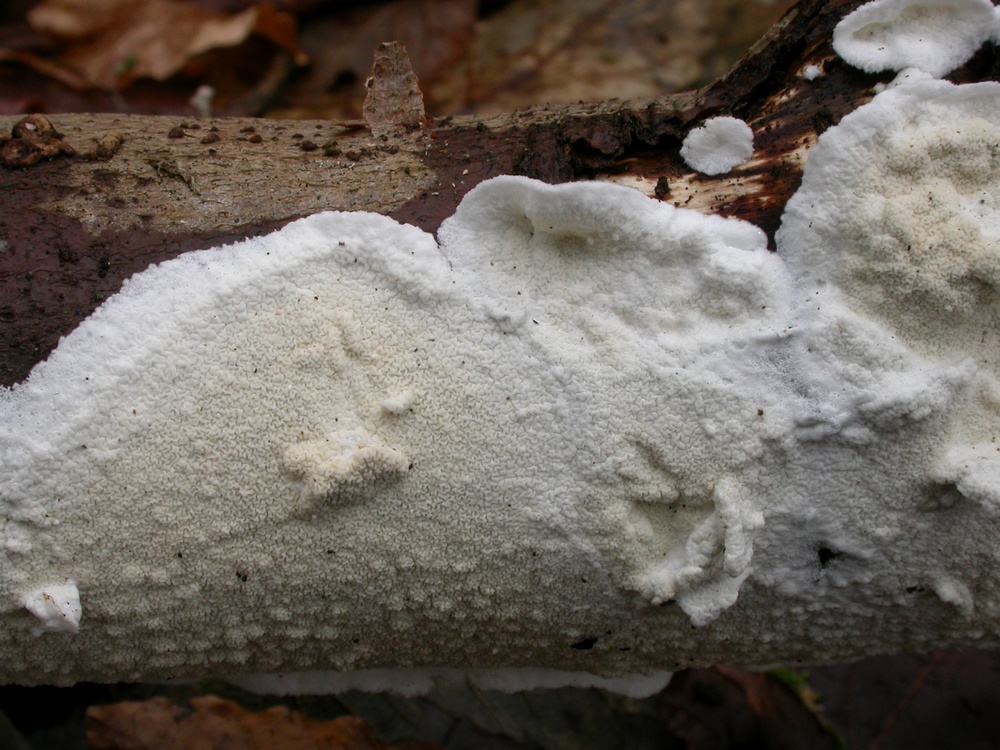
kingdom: Fungi
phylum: Basidiomycota
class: Agaricomycetes
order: Polyporales
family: Irpicaceae
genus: Byssomerulius
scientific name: Byssomerulius corium
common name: læder-åresvamp
